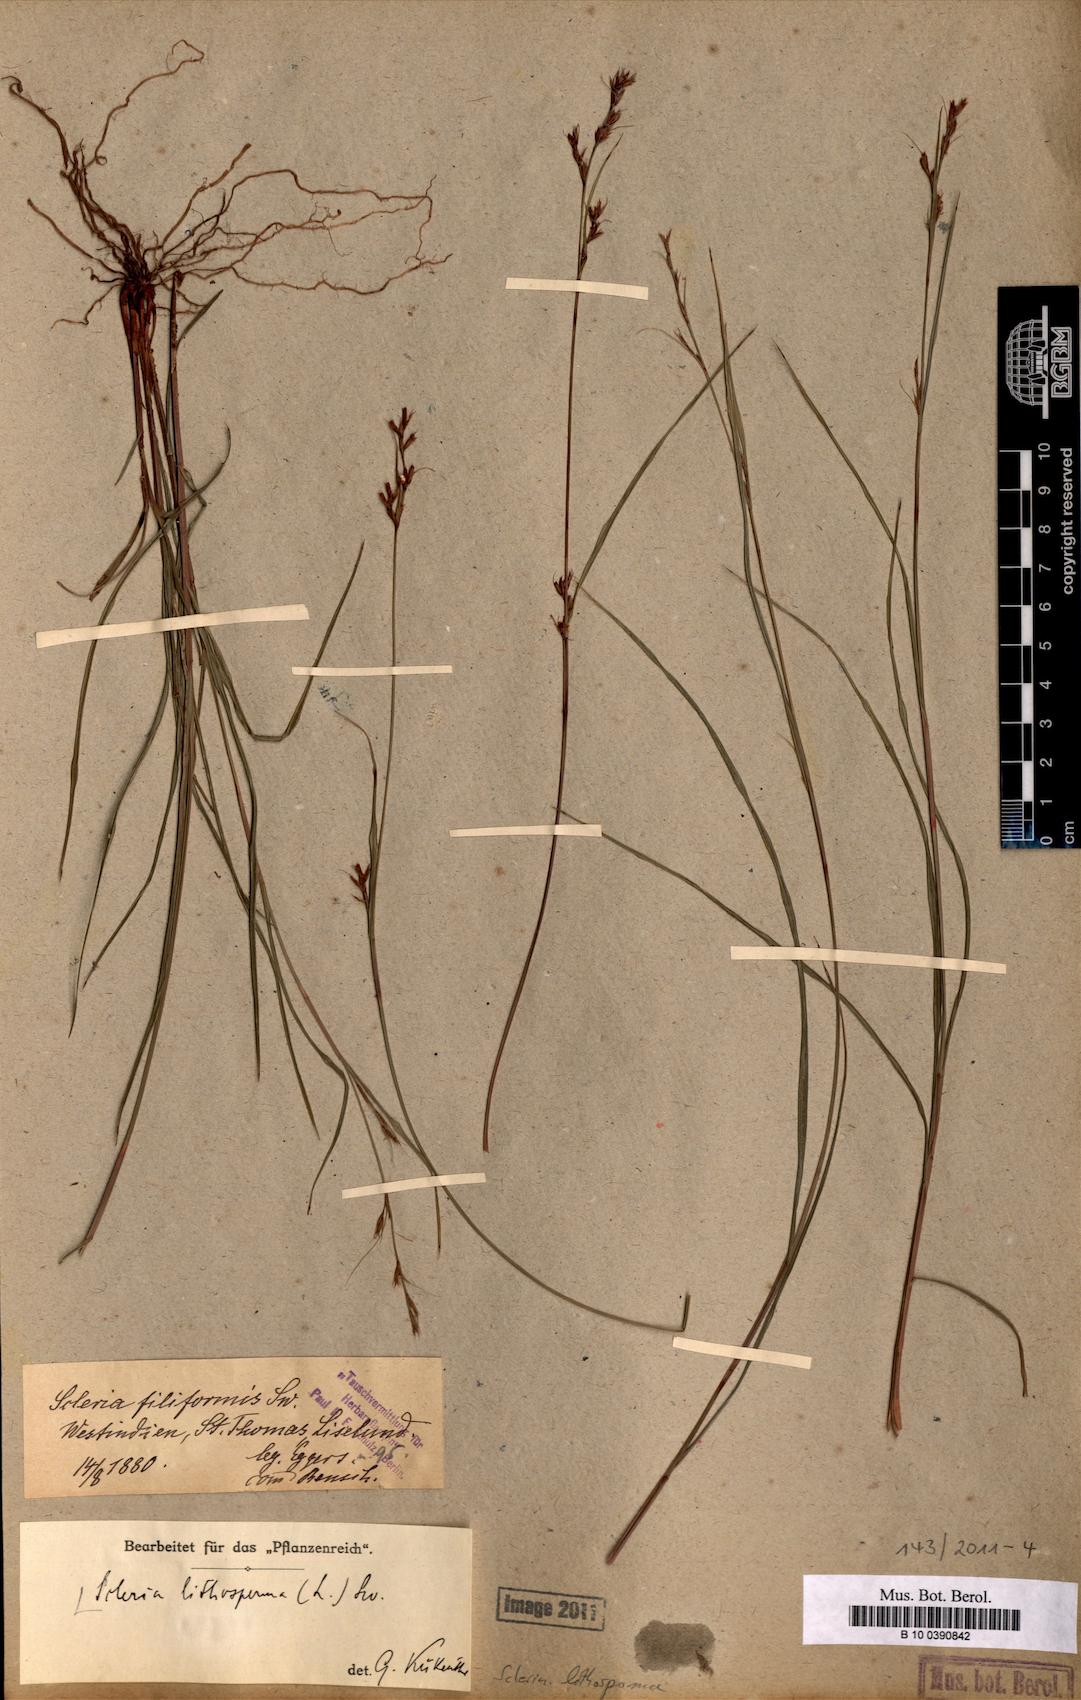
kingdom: Plantae
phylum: Tracheophyta
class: Liliopsida
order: Poales
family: Cyperaceae
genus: Scleria
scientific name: Scleria lithosperma
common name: Florida keys nut-rush
